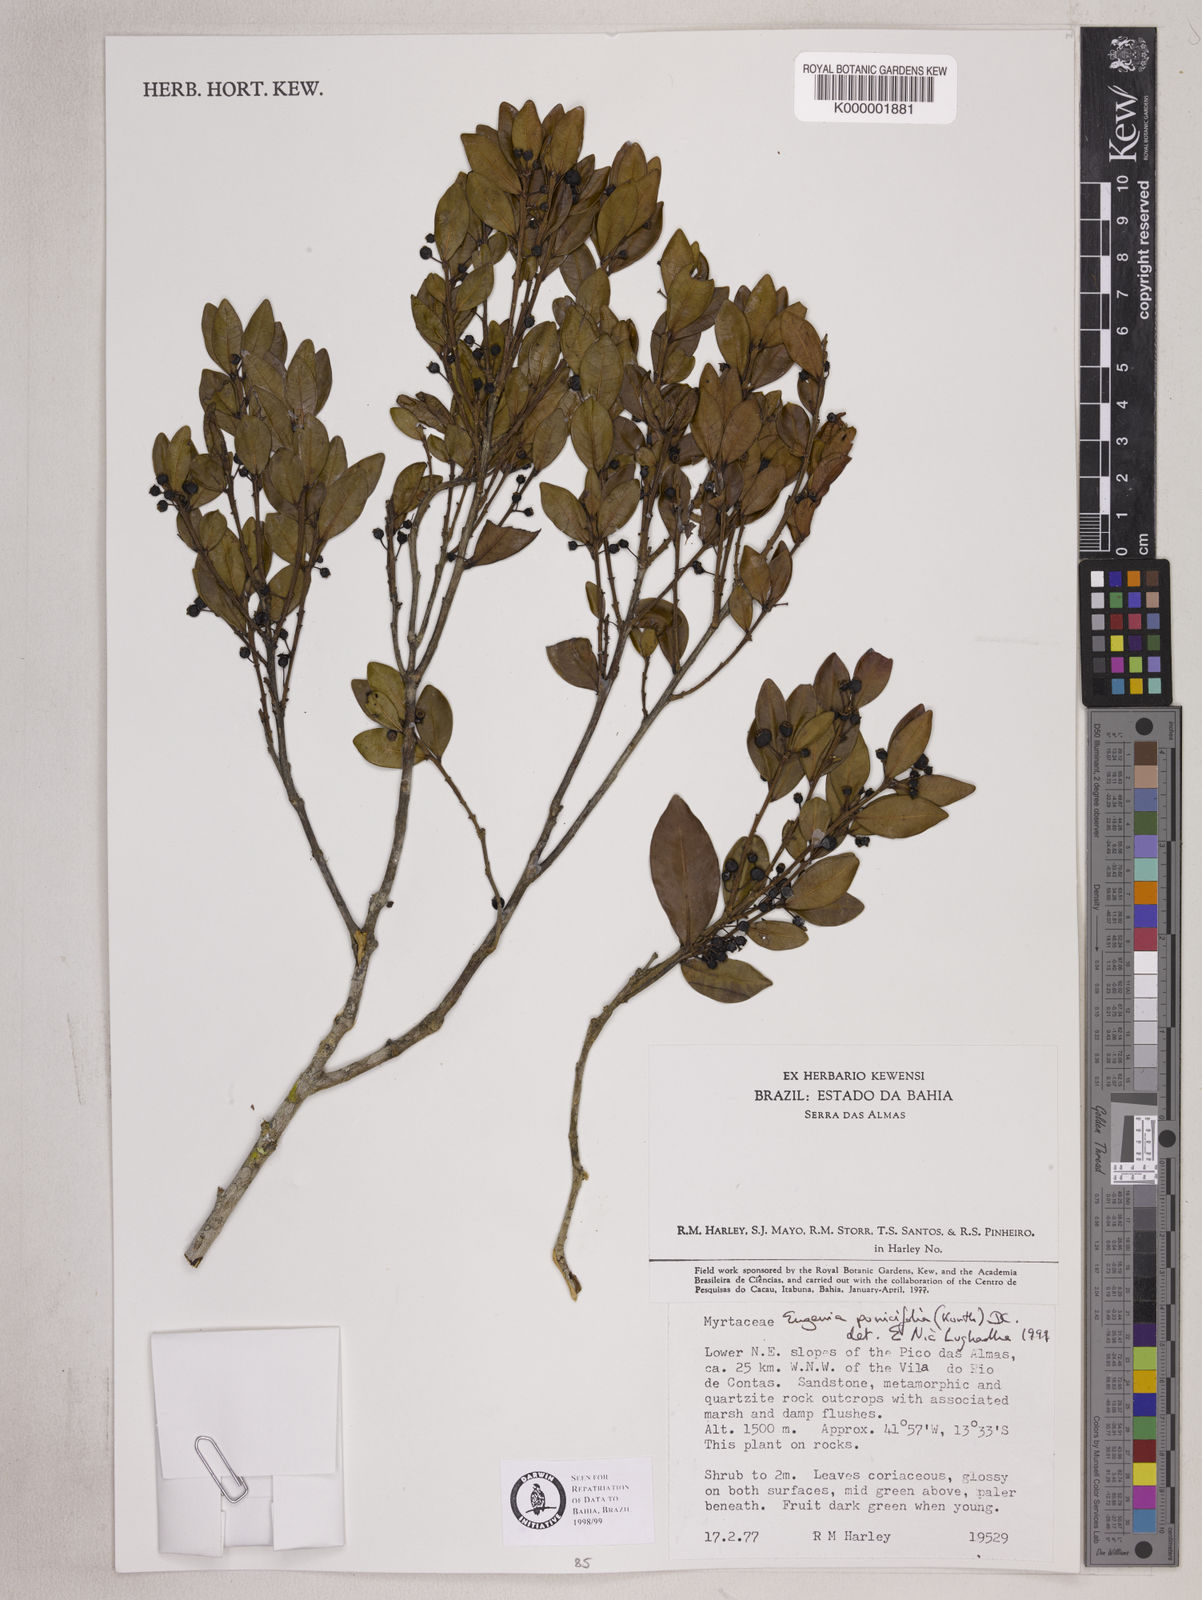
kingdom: Plantae
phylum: Tracheophyta
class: Magnoliopsida
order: Myrtales
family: Myrtaceae
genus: Eugenia
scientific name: Eugenia punicifolia
